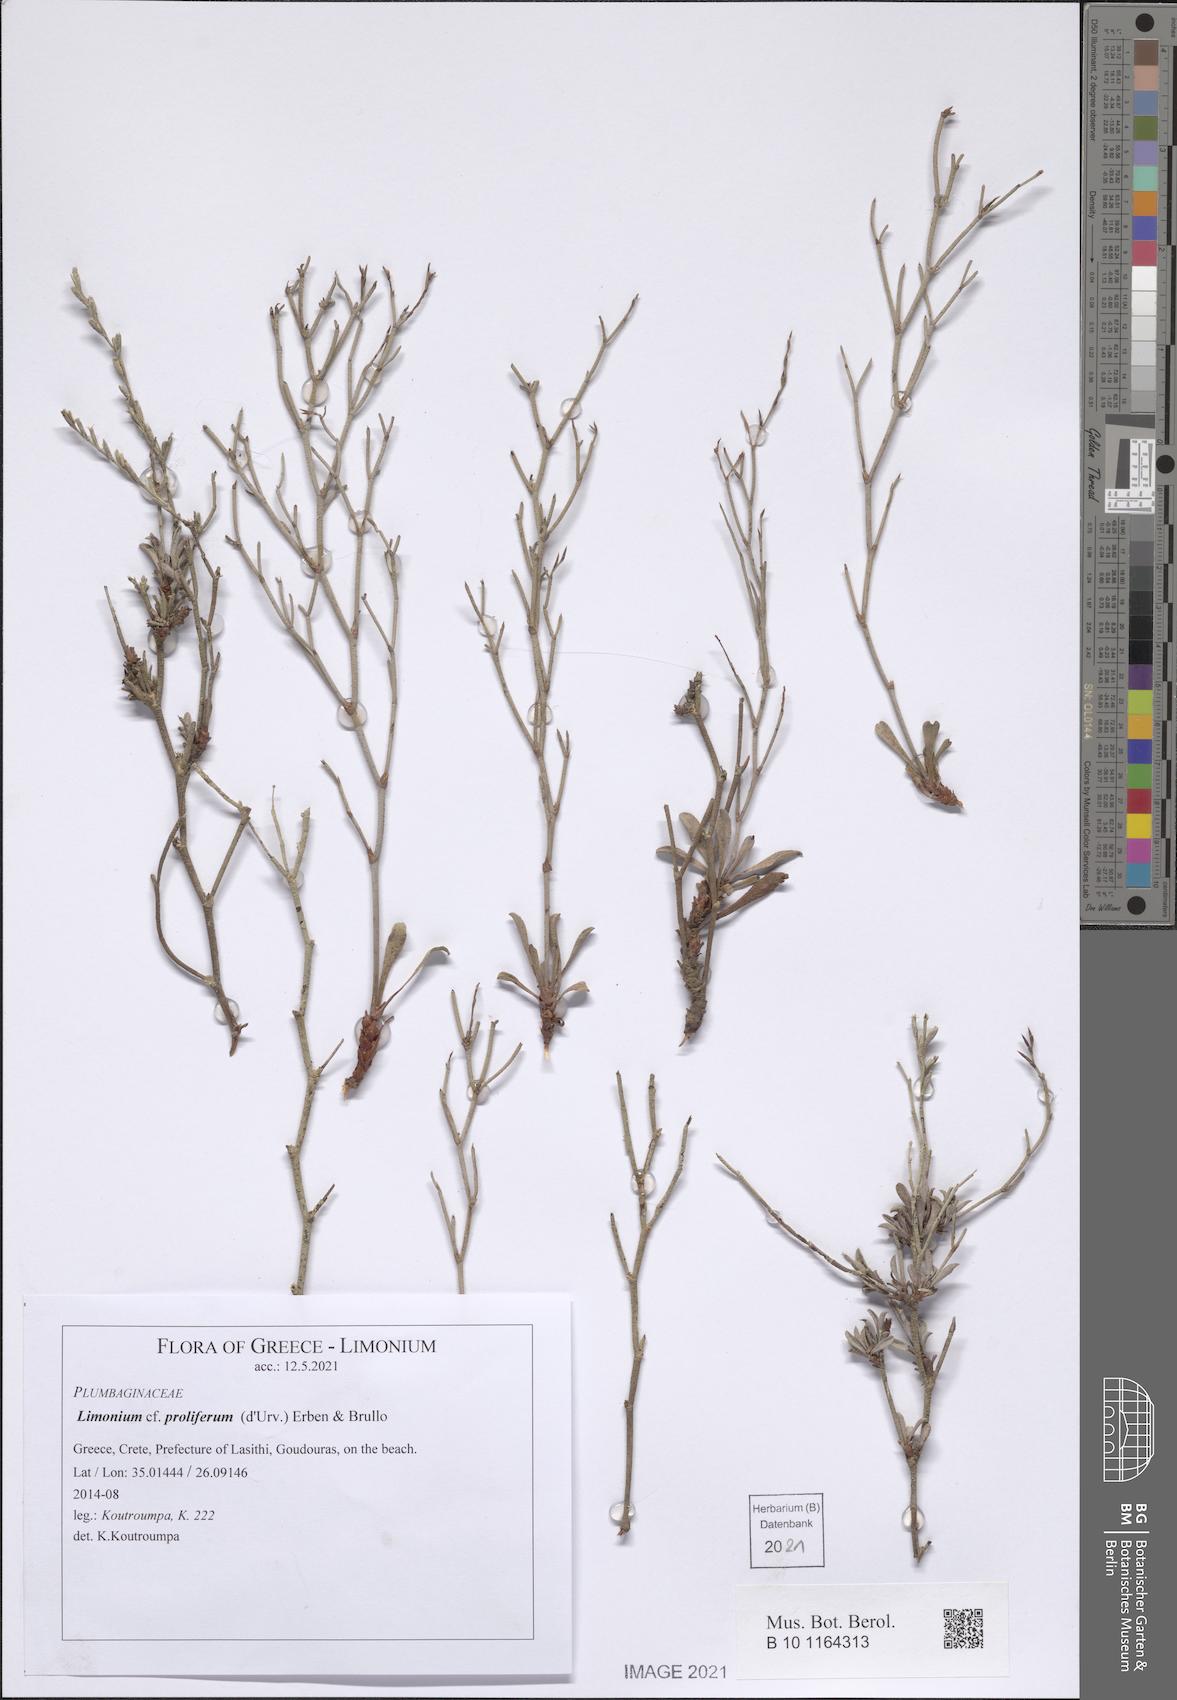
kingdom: Plantae
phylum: Tracheophyta
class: Magnoliopsida
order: Caryophyllales
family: Plumbaginaceae
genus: Limonium
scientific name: Limonium proliferum
